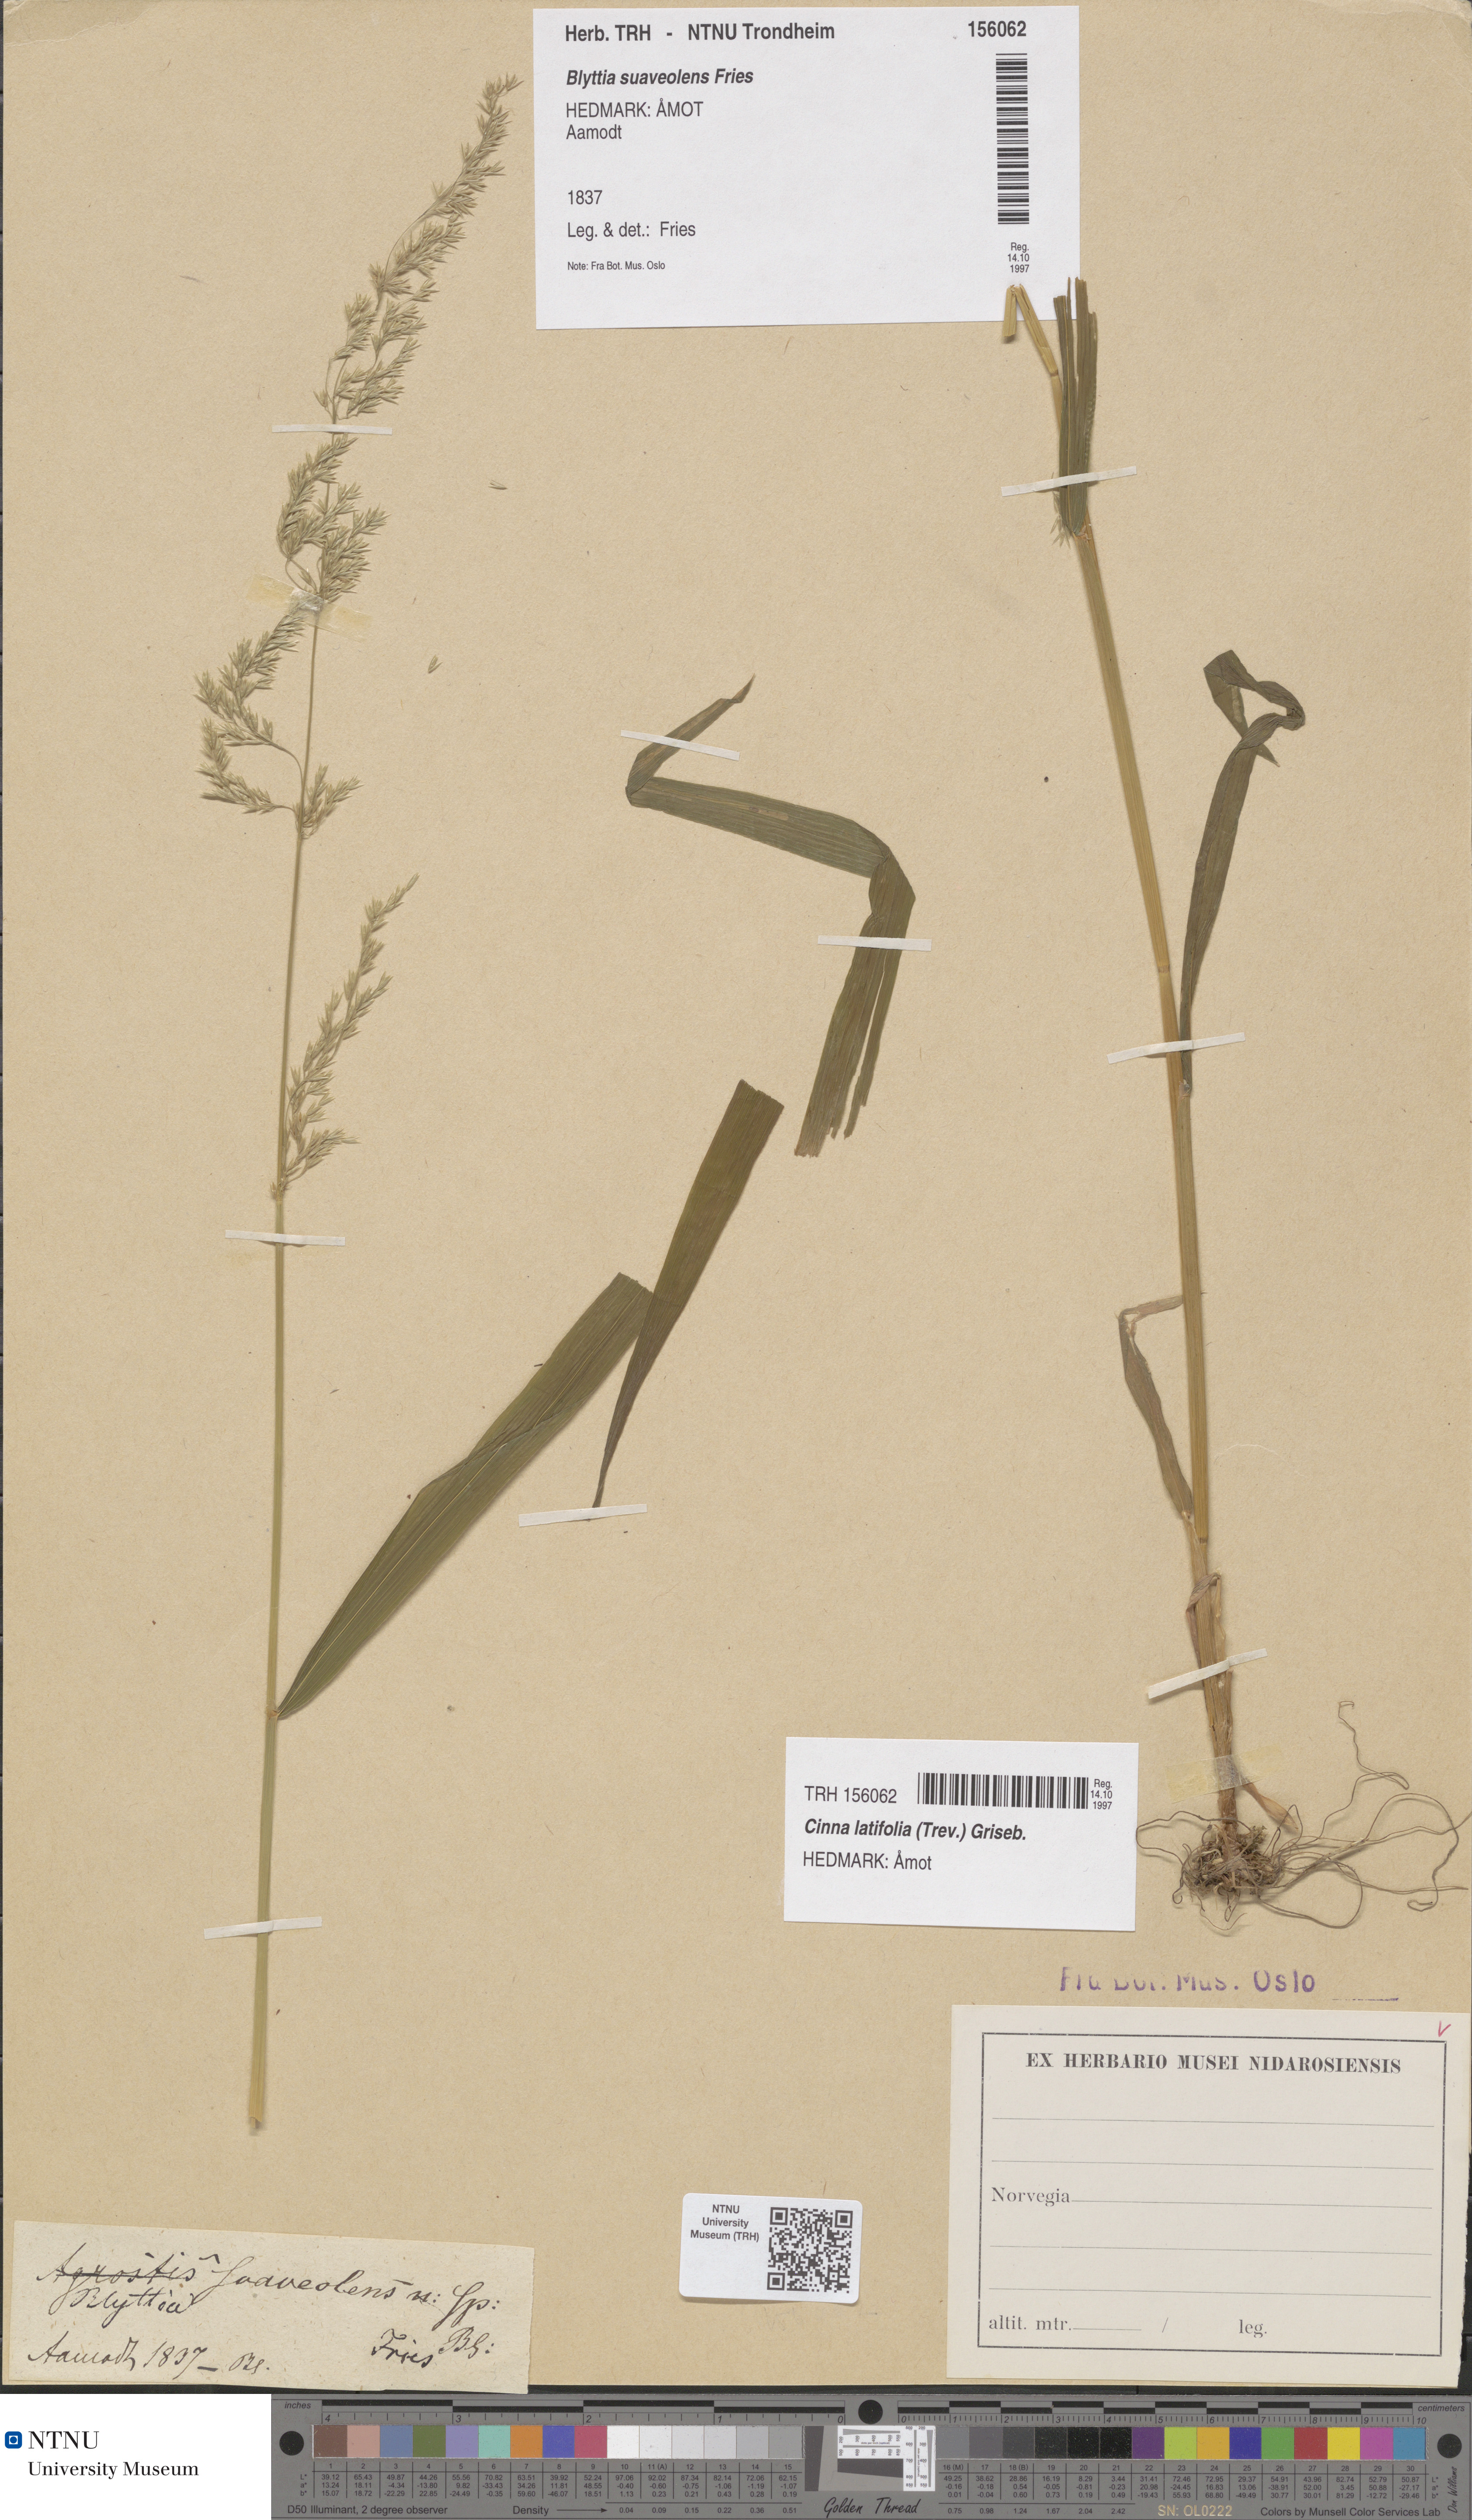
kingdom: Plantae
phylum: Tracheophyta
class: Liliopsida
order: Poales
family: Poaceae
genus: Cinna
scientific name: Cinna latifolia
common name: Drooping woodreed
